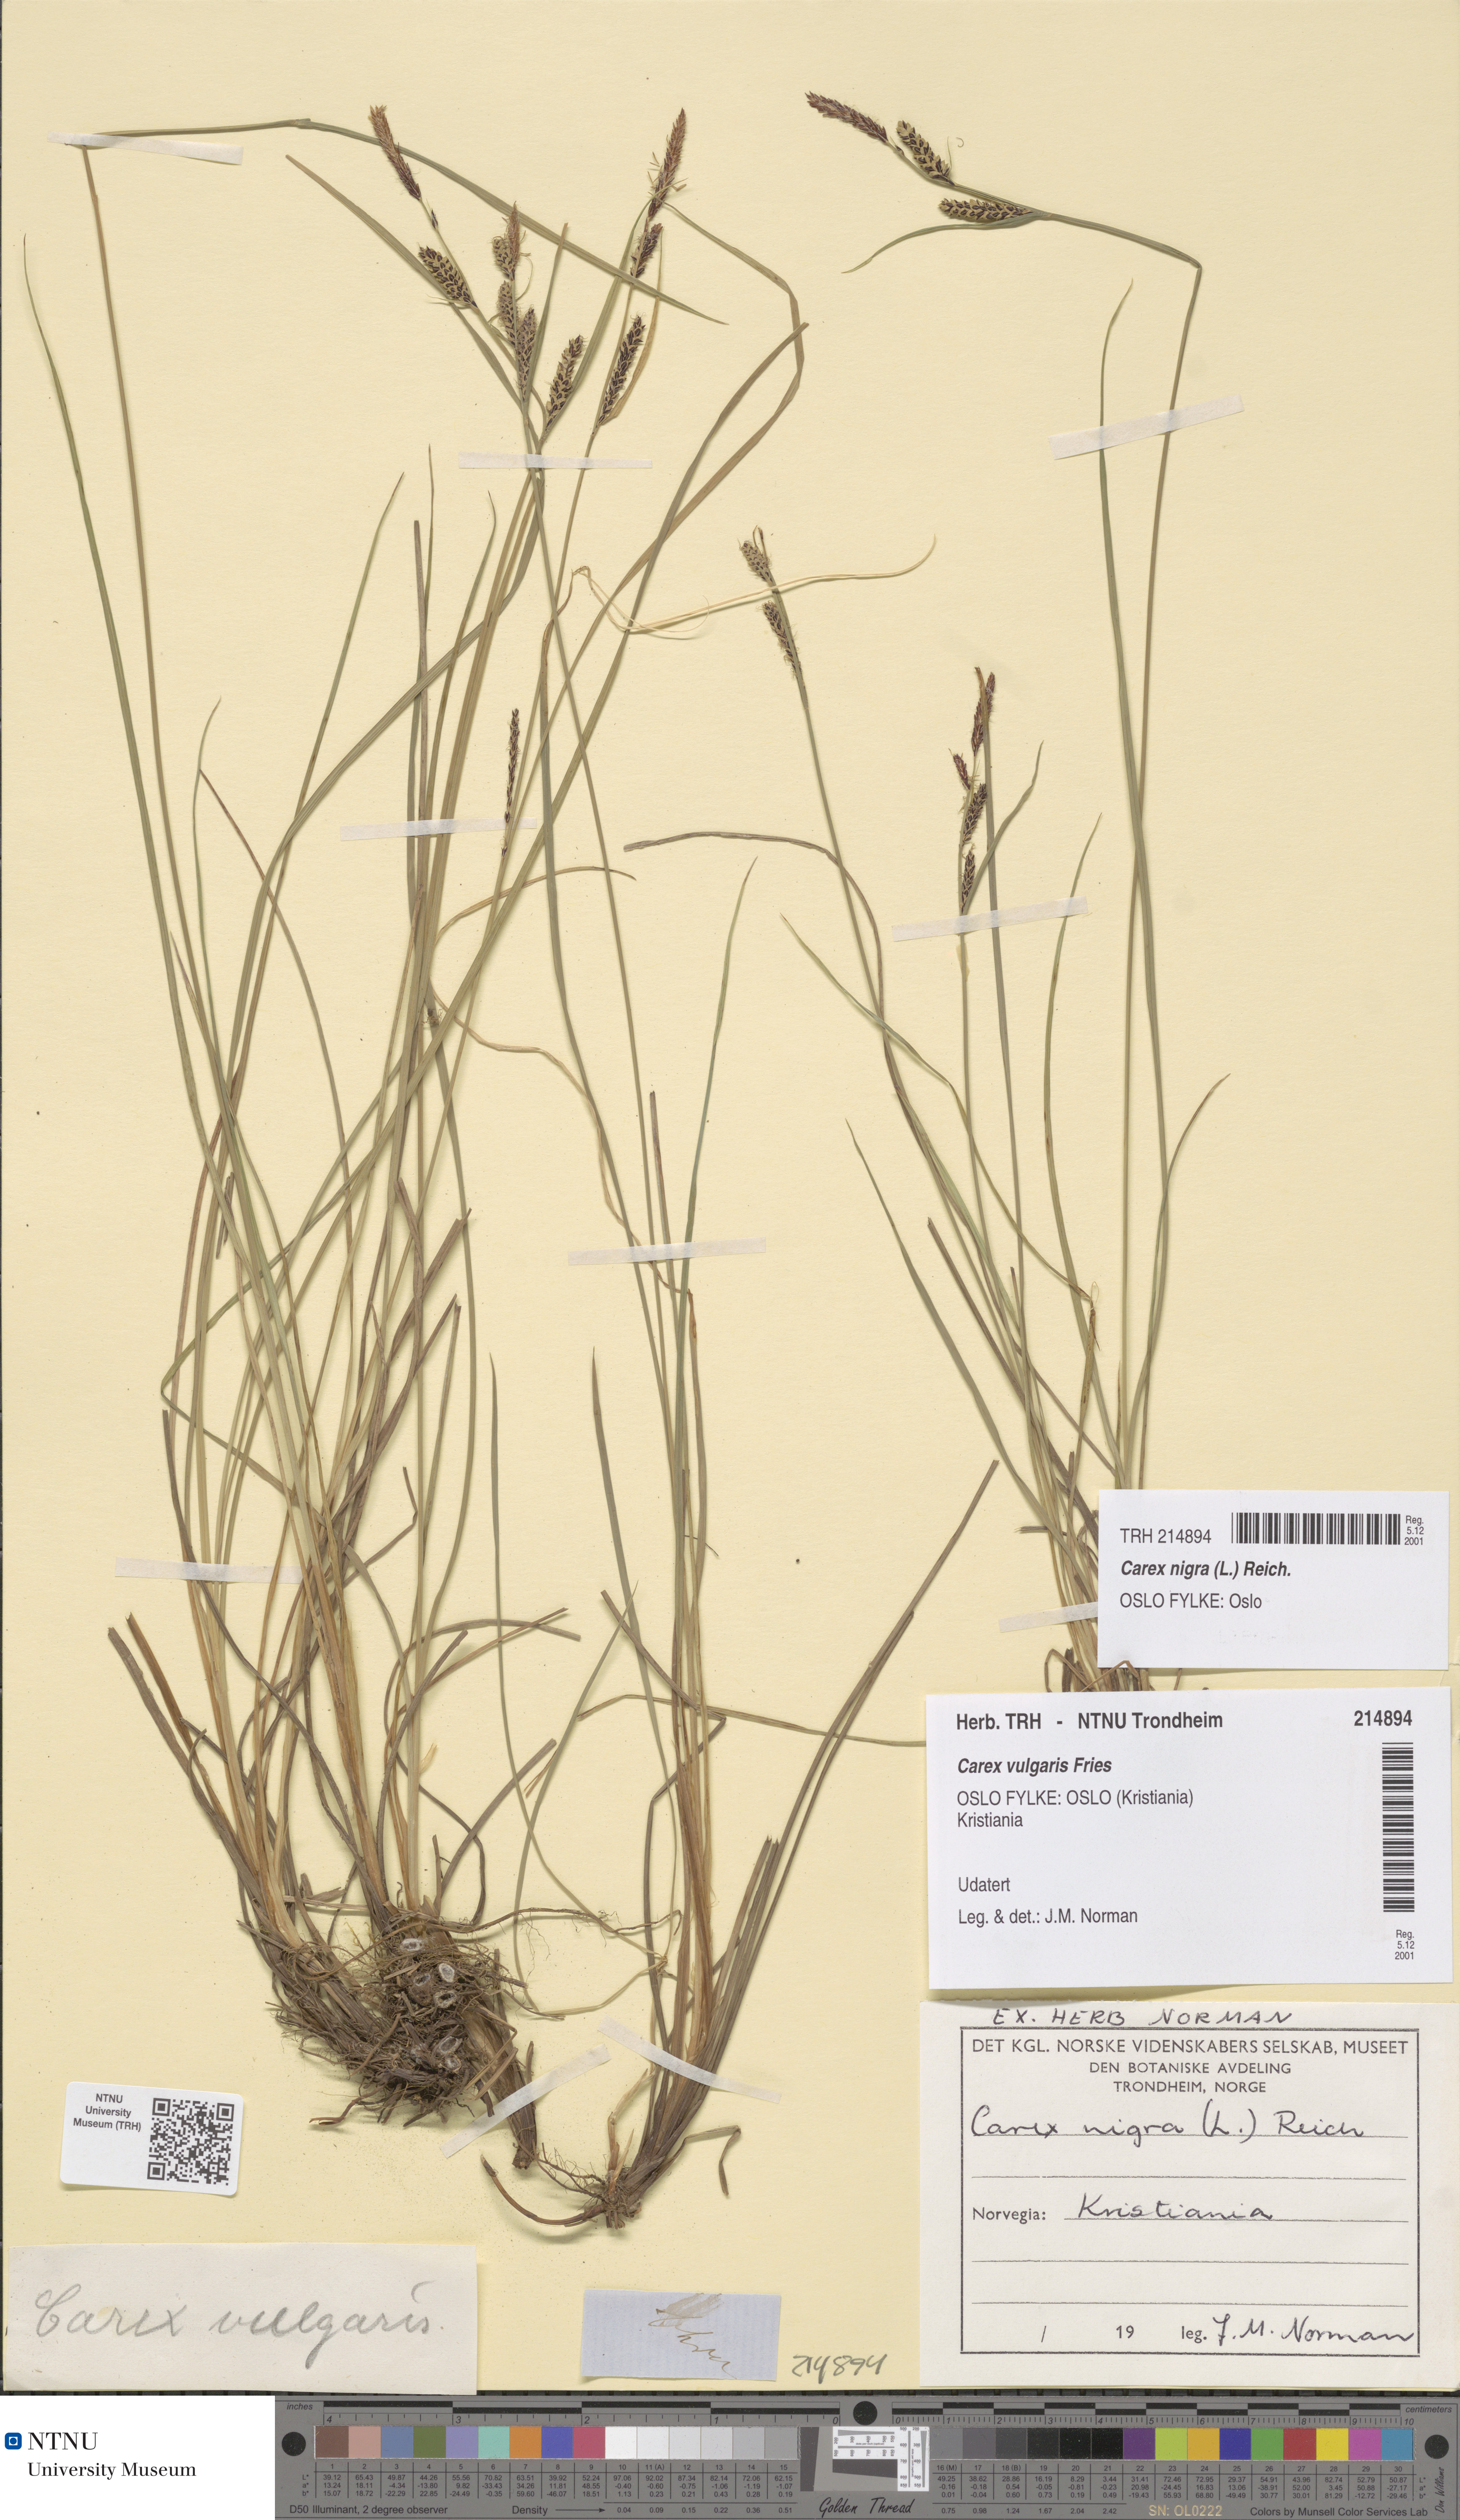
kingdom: Plantae
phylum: Tracheophyta
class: Liliopsida
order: Poales
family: Cyperaceae
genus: Carex
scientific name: Carex nigra
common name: Common sedge
